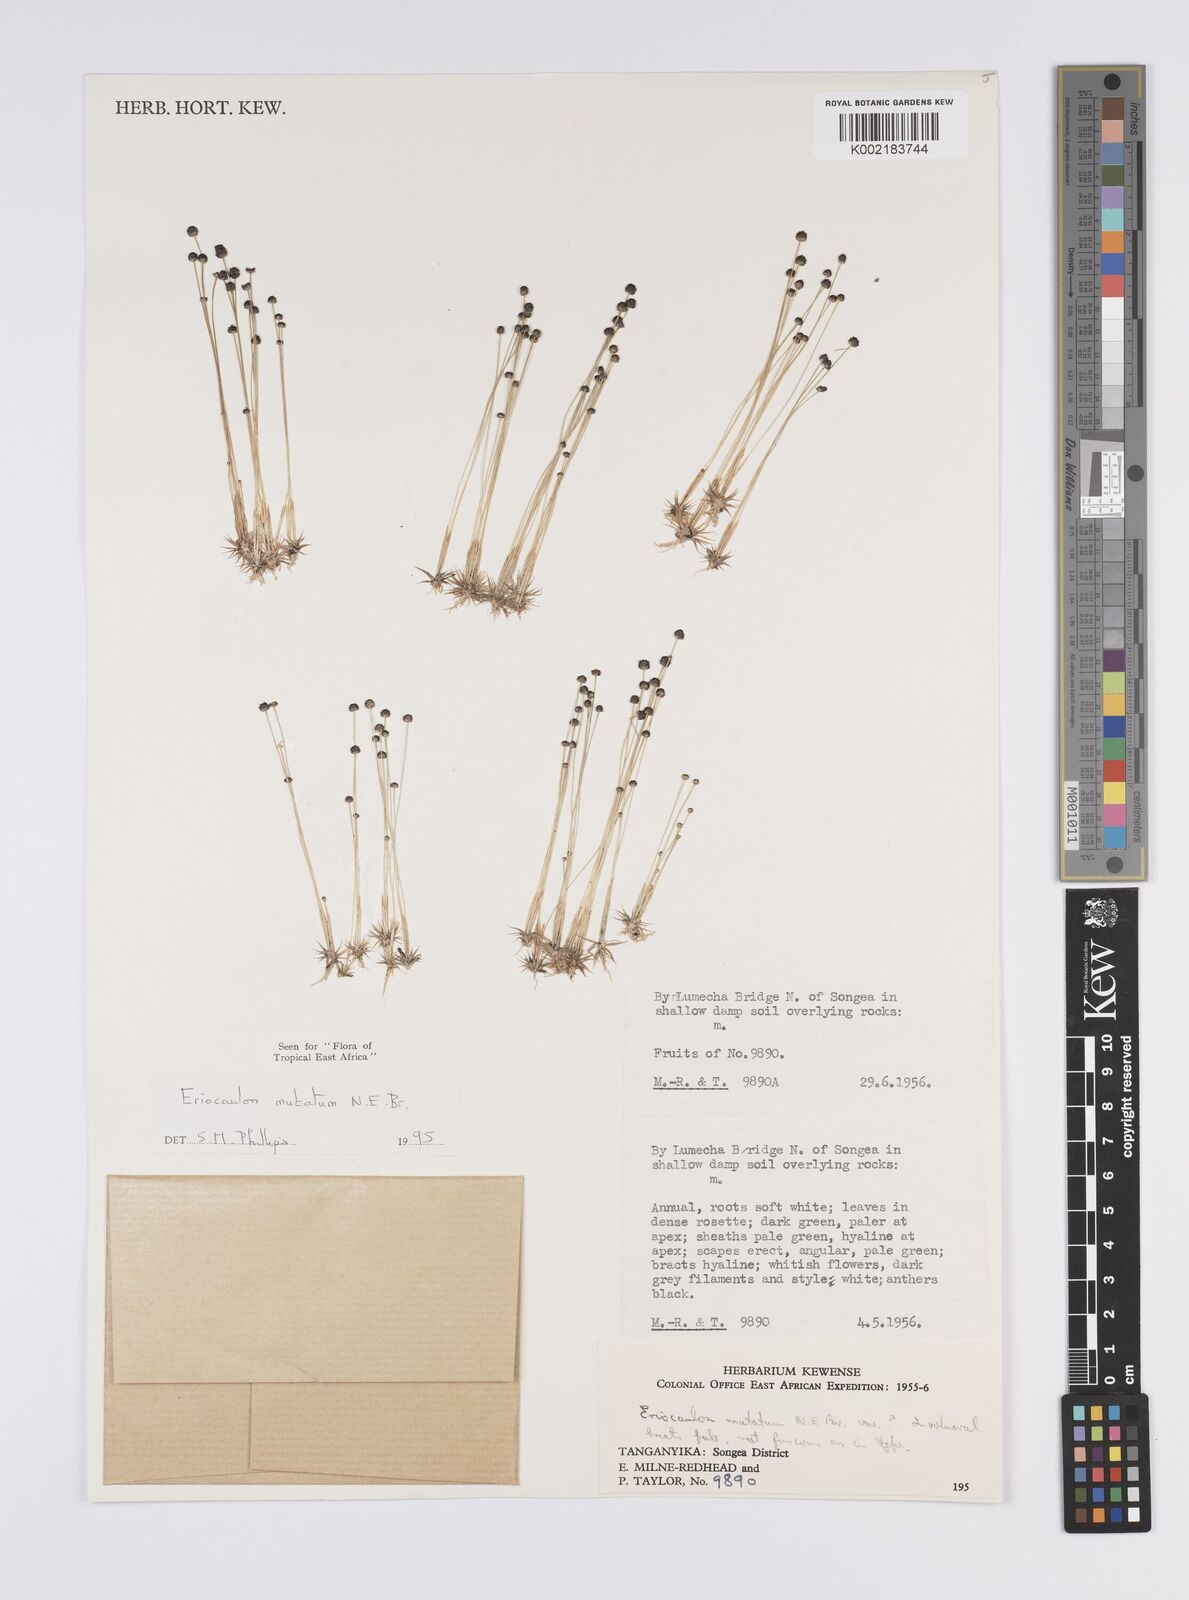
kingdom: Plantae
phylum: Tracheophyta
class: Liliopsida
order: Poales
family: Eriocaulaceae
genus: Eriocaulon
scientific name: Eriocaulon mutatum
